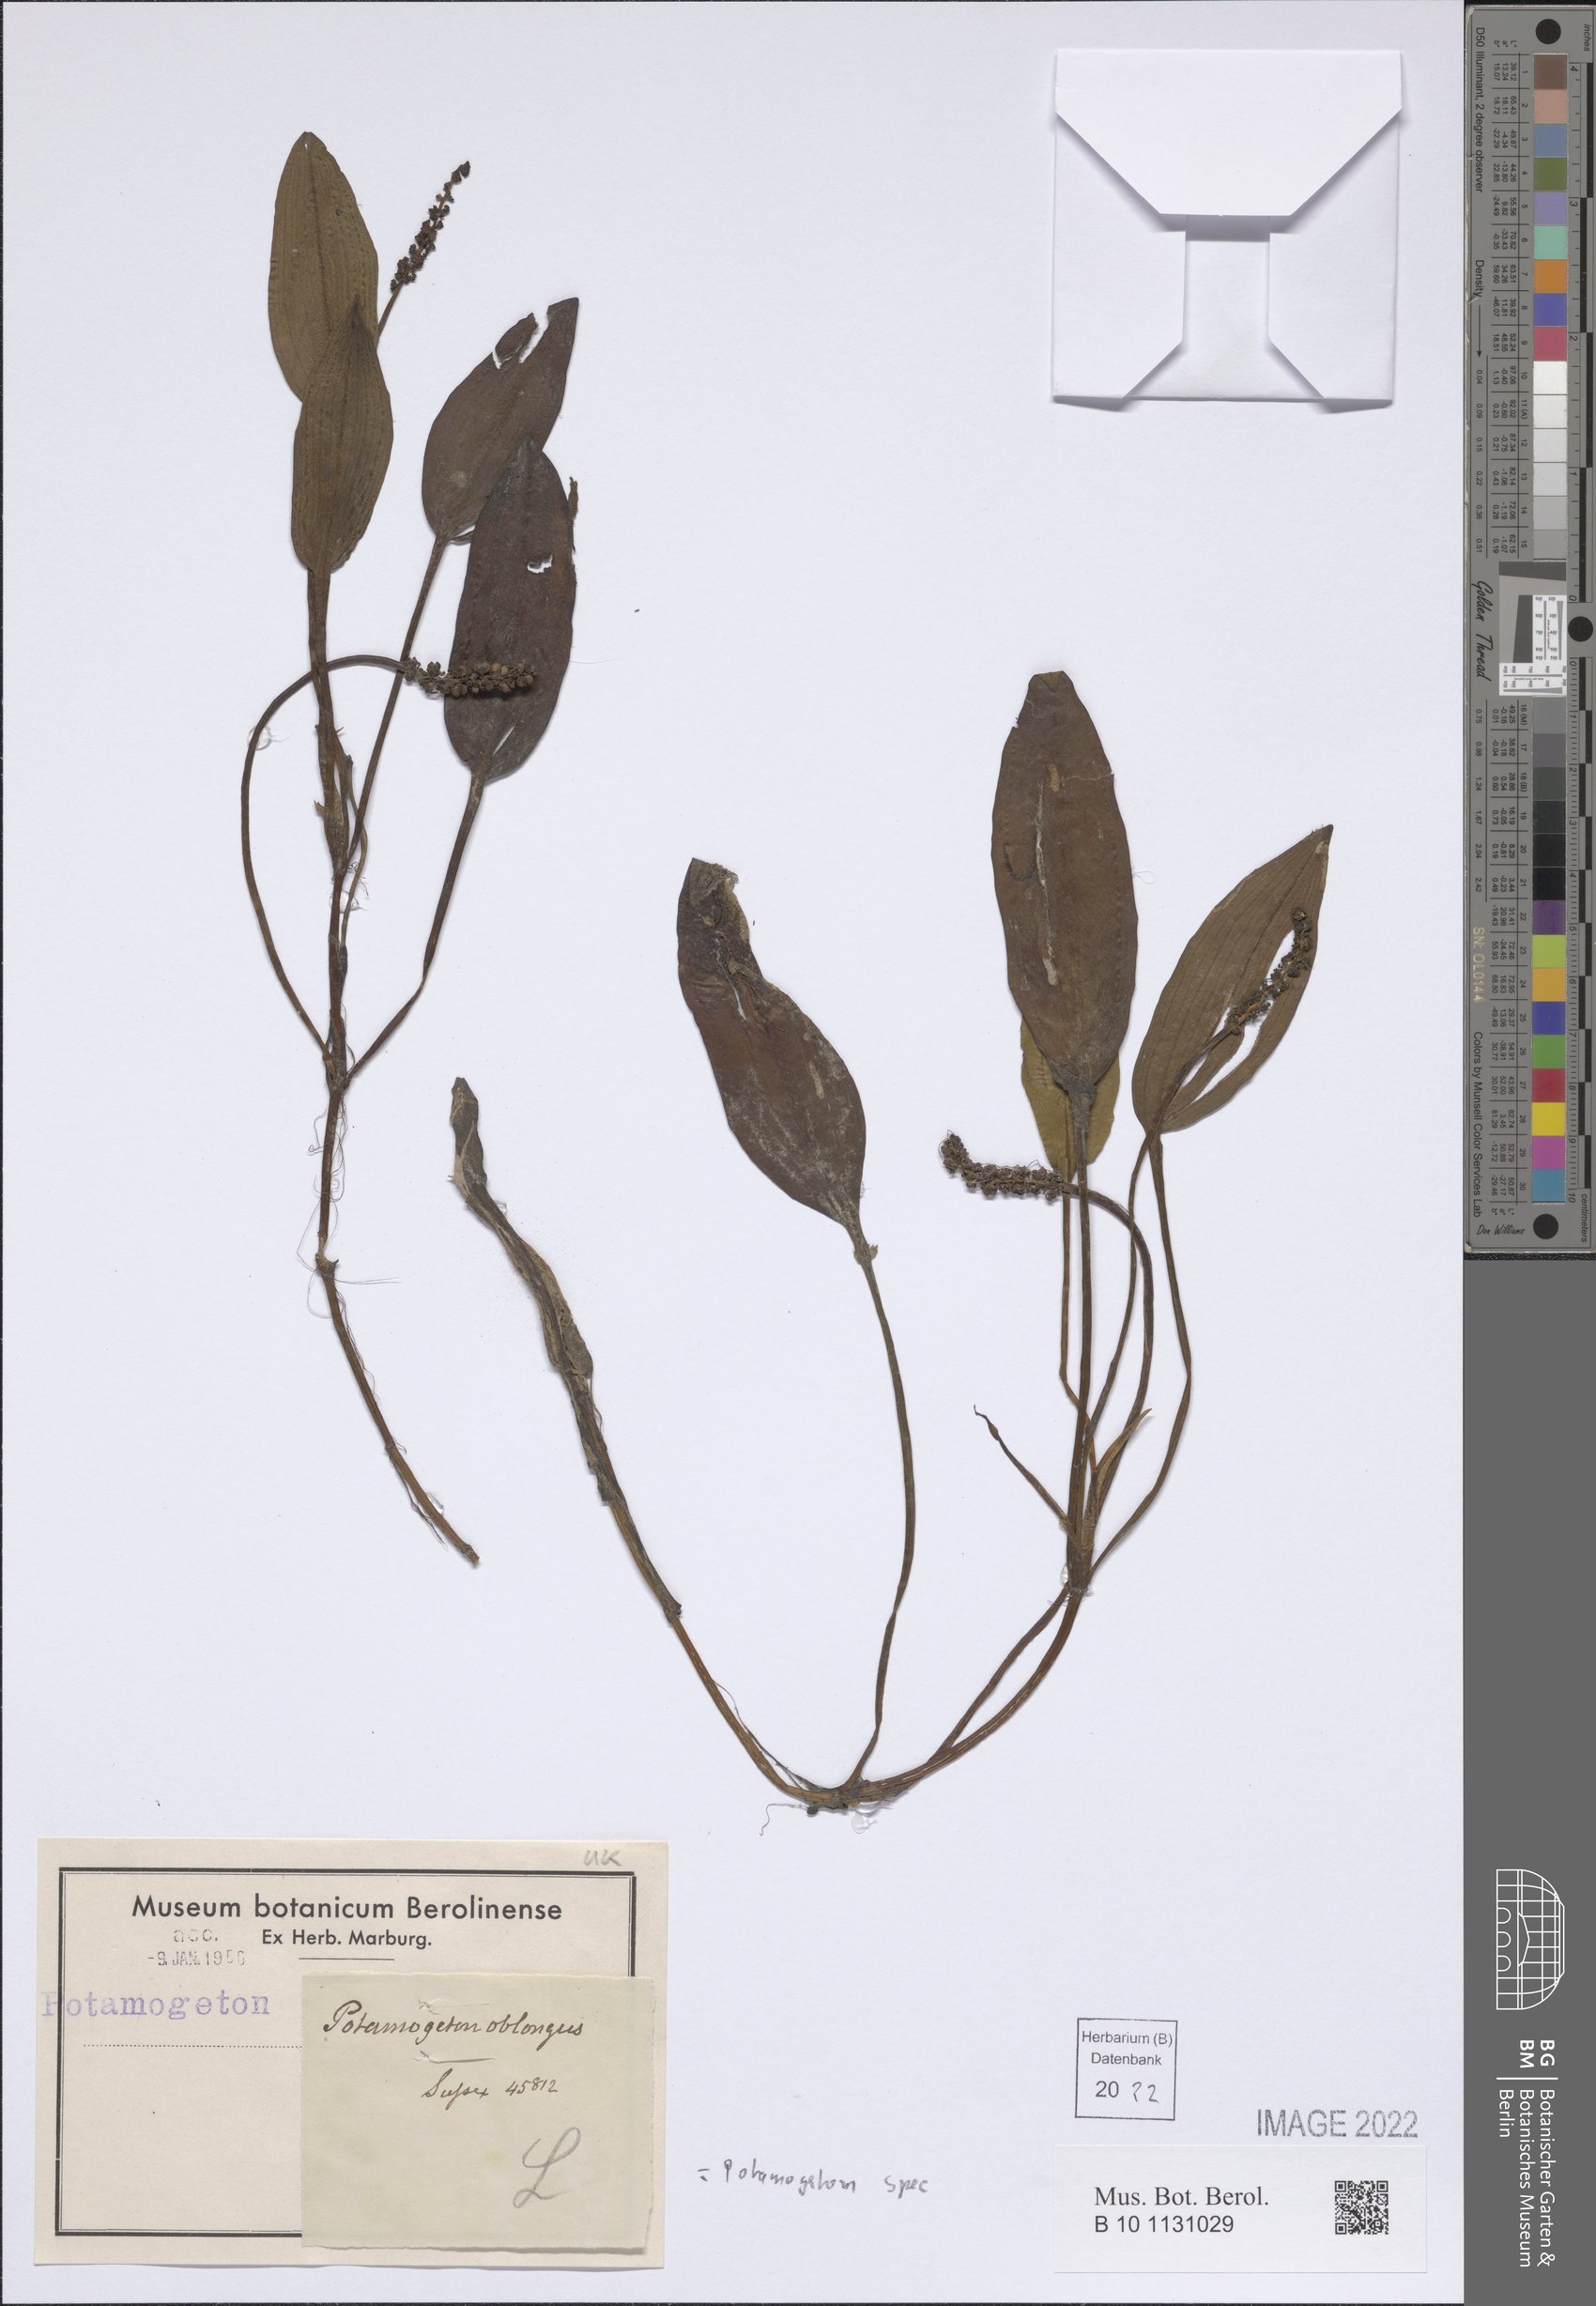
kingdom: Plantae
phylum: Tracheophyta
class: Liliopsida
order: Alismatales
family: Potamogetonaceae
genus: Potamogeton
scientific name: Potamogeton
